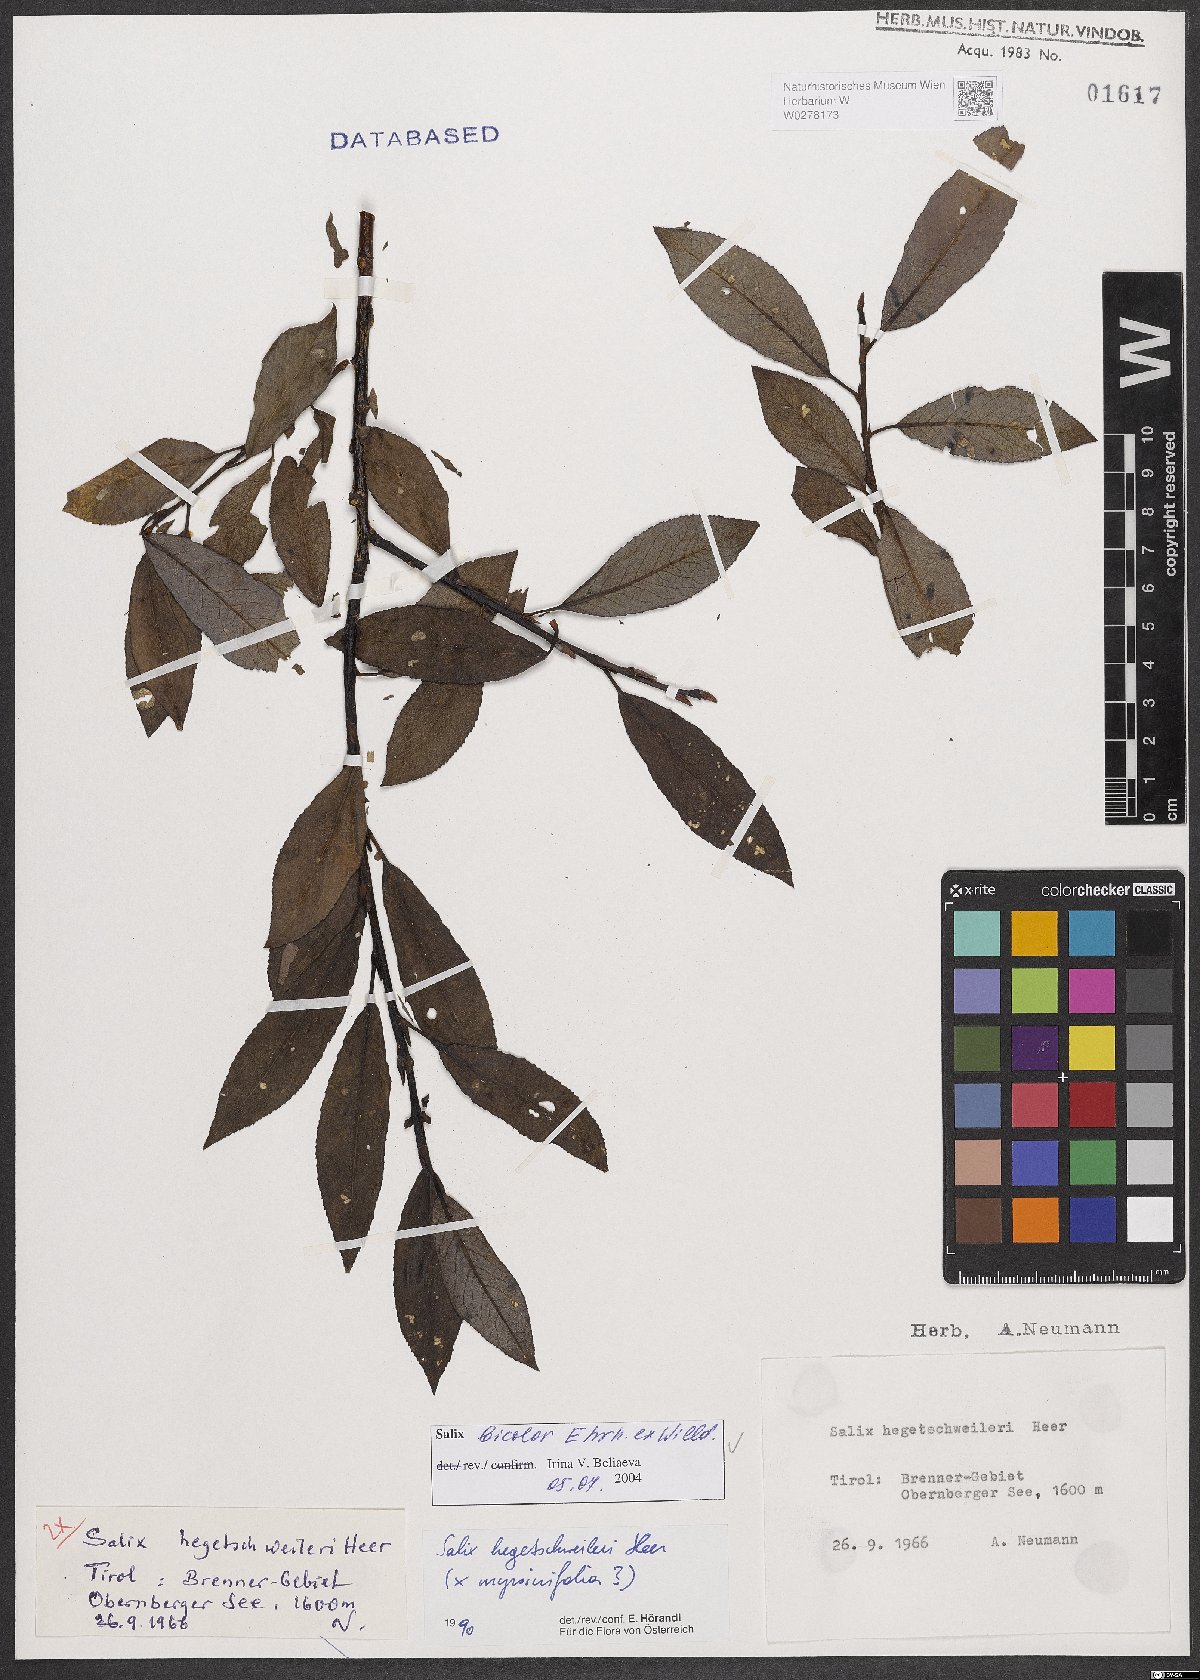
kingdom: Plantae
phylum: Tracheophyta
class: Magnoliopsida
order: Malpighiales
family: Salicaceae
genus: Salix
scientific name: Salix bicolor
